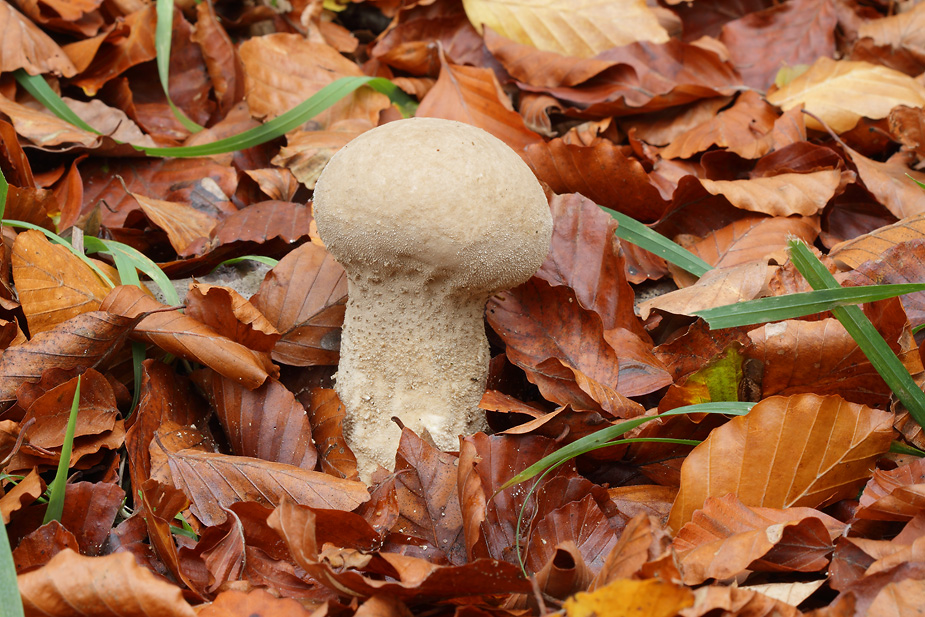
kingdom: Fungi
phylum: Basidiomycota
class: Agaricomycetes
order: Agaricales
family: Lycoperdaceae
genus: Lycoperdon
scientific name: Lycoperdon excipuliforme
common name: højstokket støvbold
